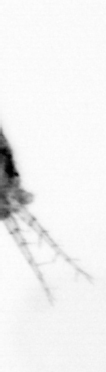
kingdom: Animalia
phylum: Arthropoda
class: Copepoda
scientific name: Copepoda
